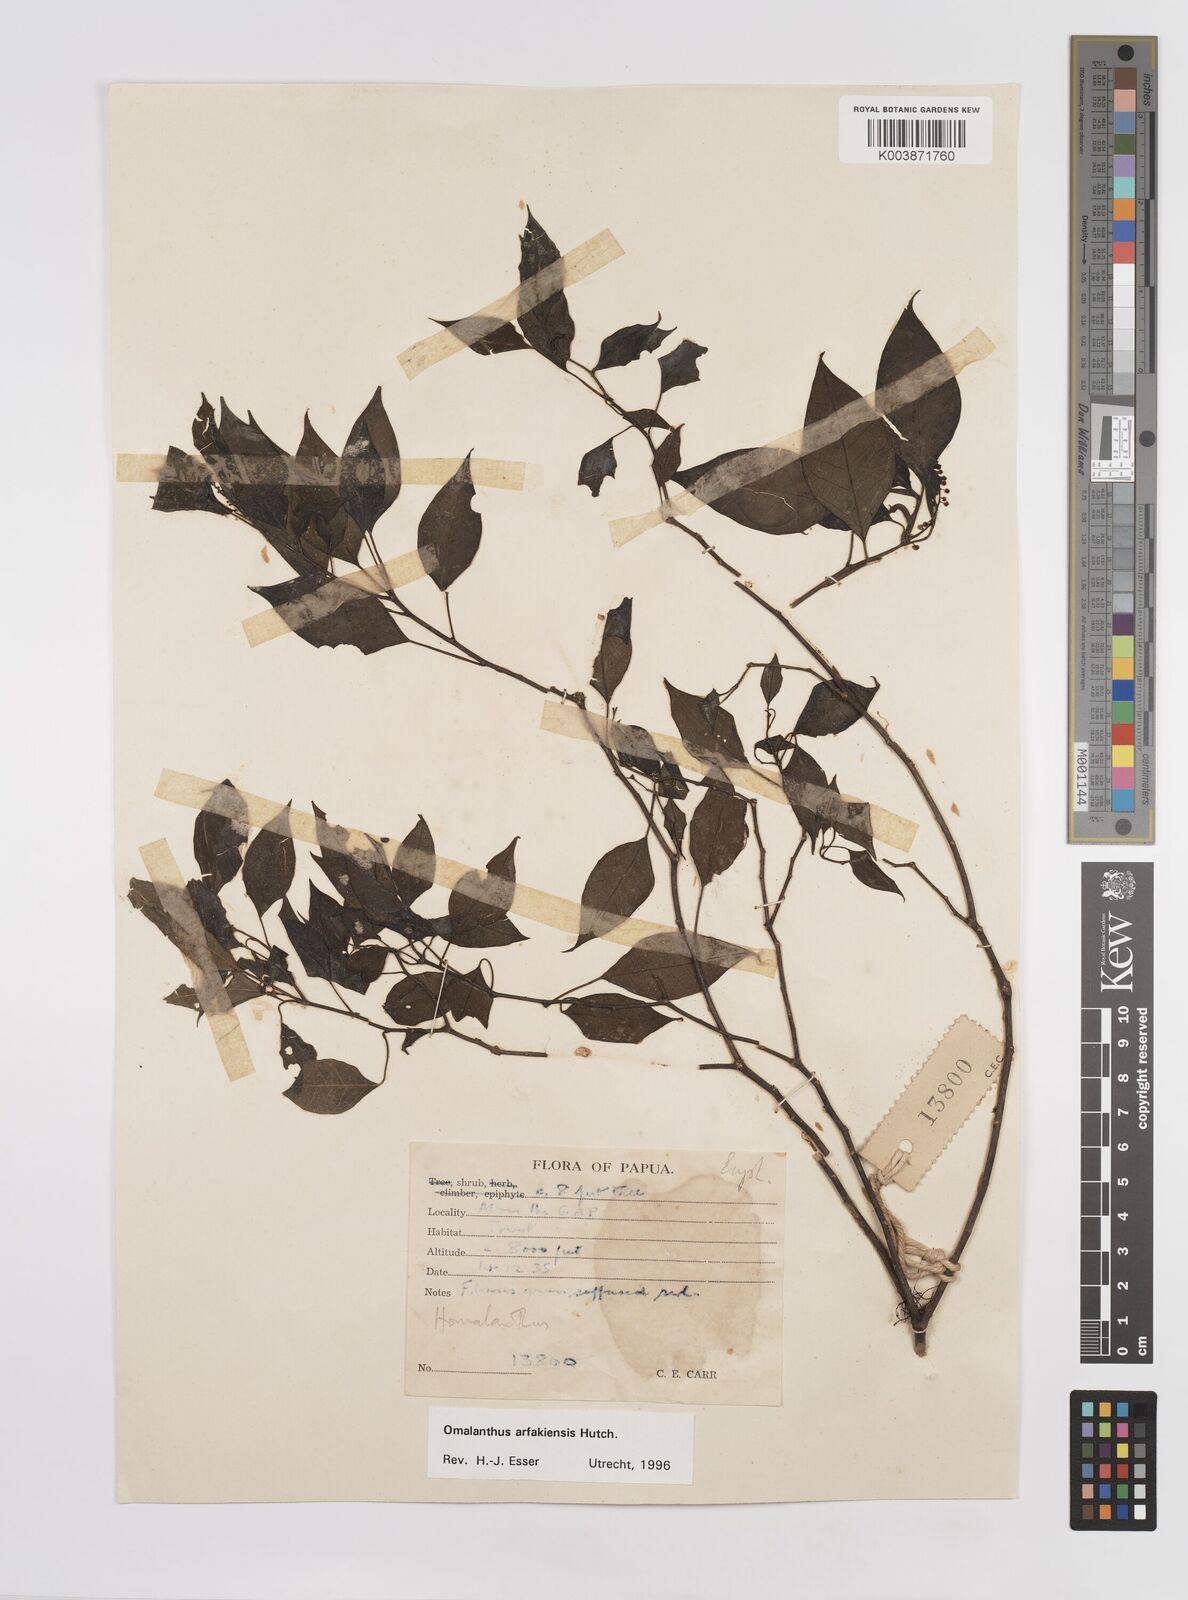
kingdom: Plantae
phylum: Tracheophyta
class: Magnoliopsida
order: Malpighiales
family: Euphorbiaceae
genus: Homalanthus
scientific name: Homalanthus arfakiensis
